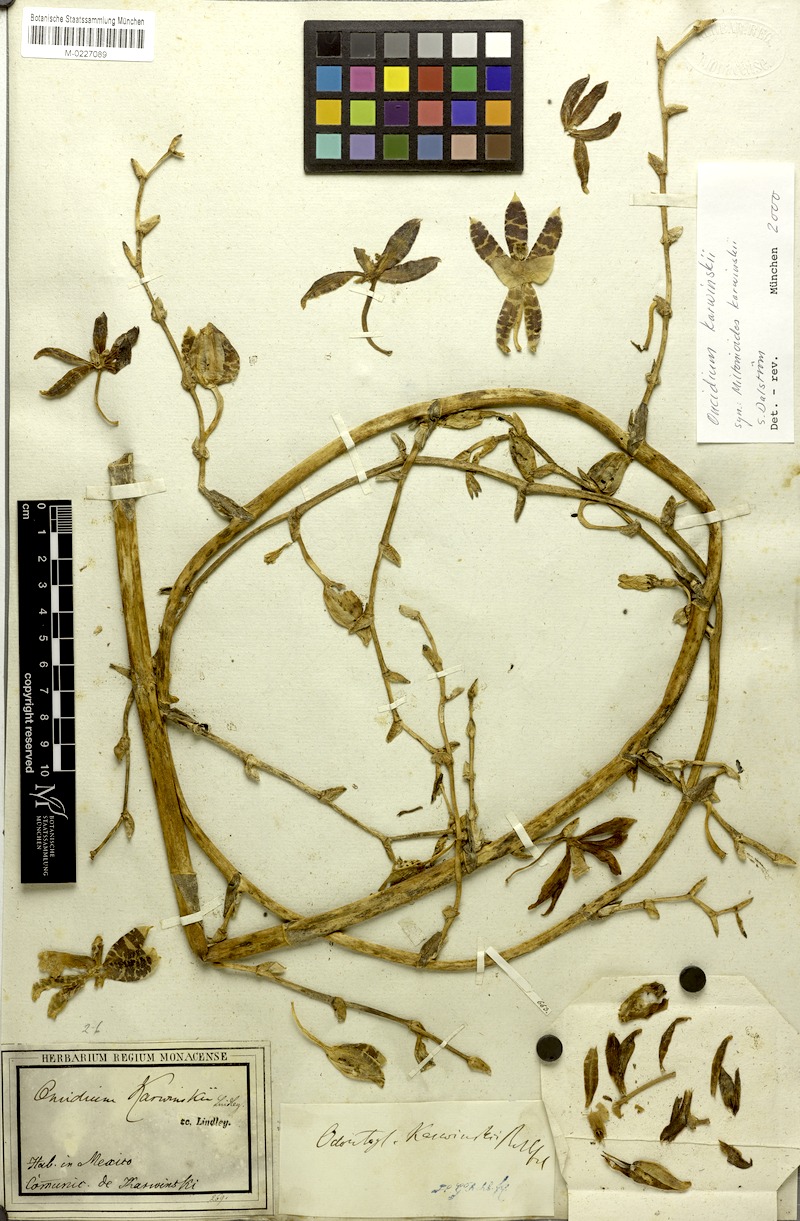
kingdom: Plantae
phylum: Tracheophyta
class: Liliopsida
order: Asparagales
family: Orchidaceae
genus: Oncidium
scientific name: Oncidium karwinskii
